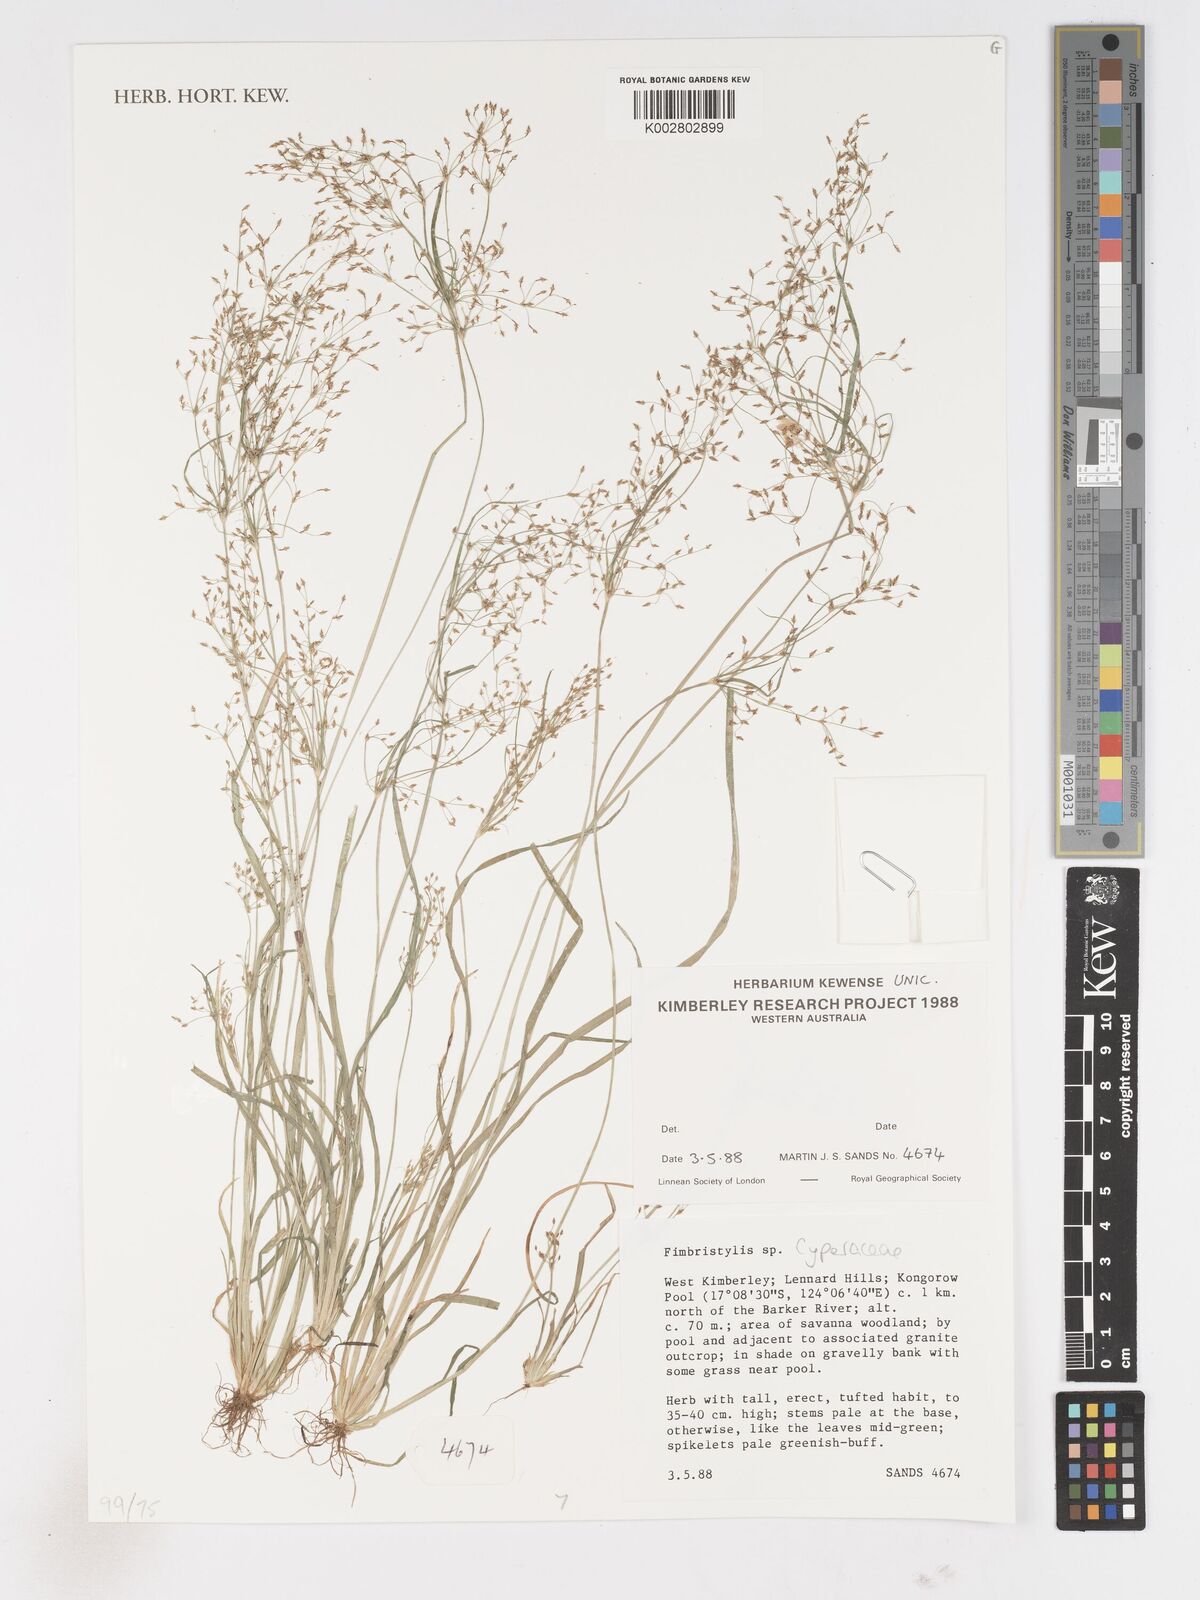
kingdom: Plantae
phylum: Tracheophyta
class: Liliopsida
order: Poales
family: Cyperaceae
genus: Fimbristylis
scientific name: Fimbristylis
